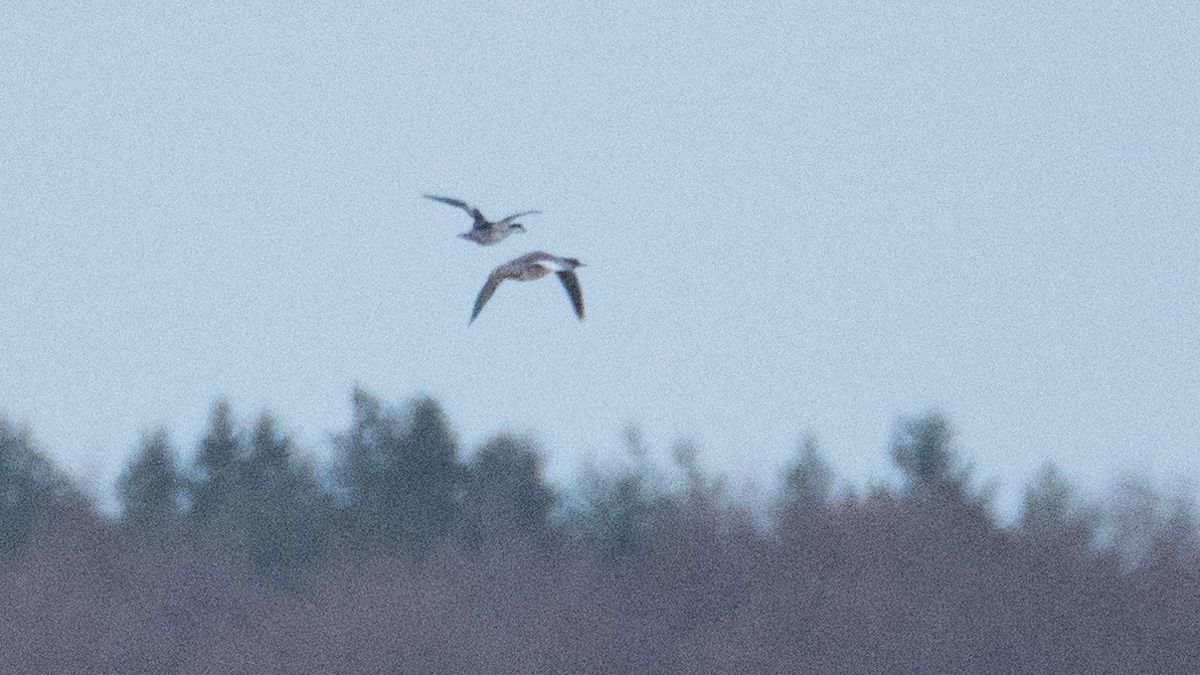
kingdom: Animalia
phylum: Chordata
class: Aves
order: Anseriformes
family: Anatidae
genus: Mergellus
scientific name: Mergellus albellus
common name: Smew
